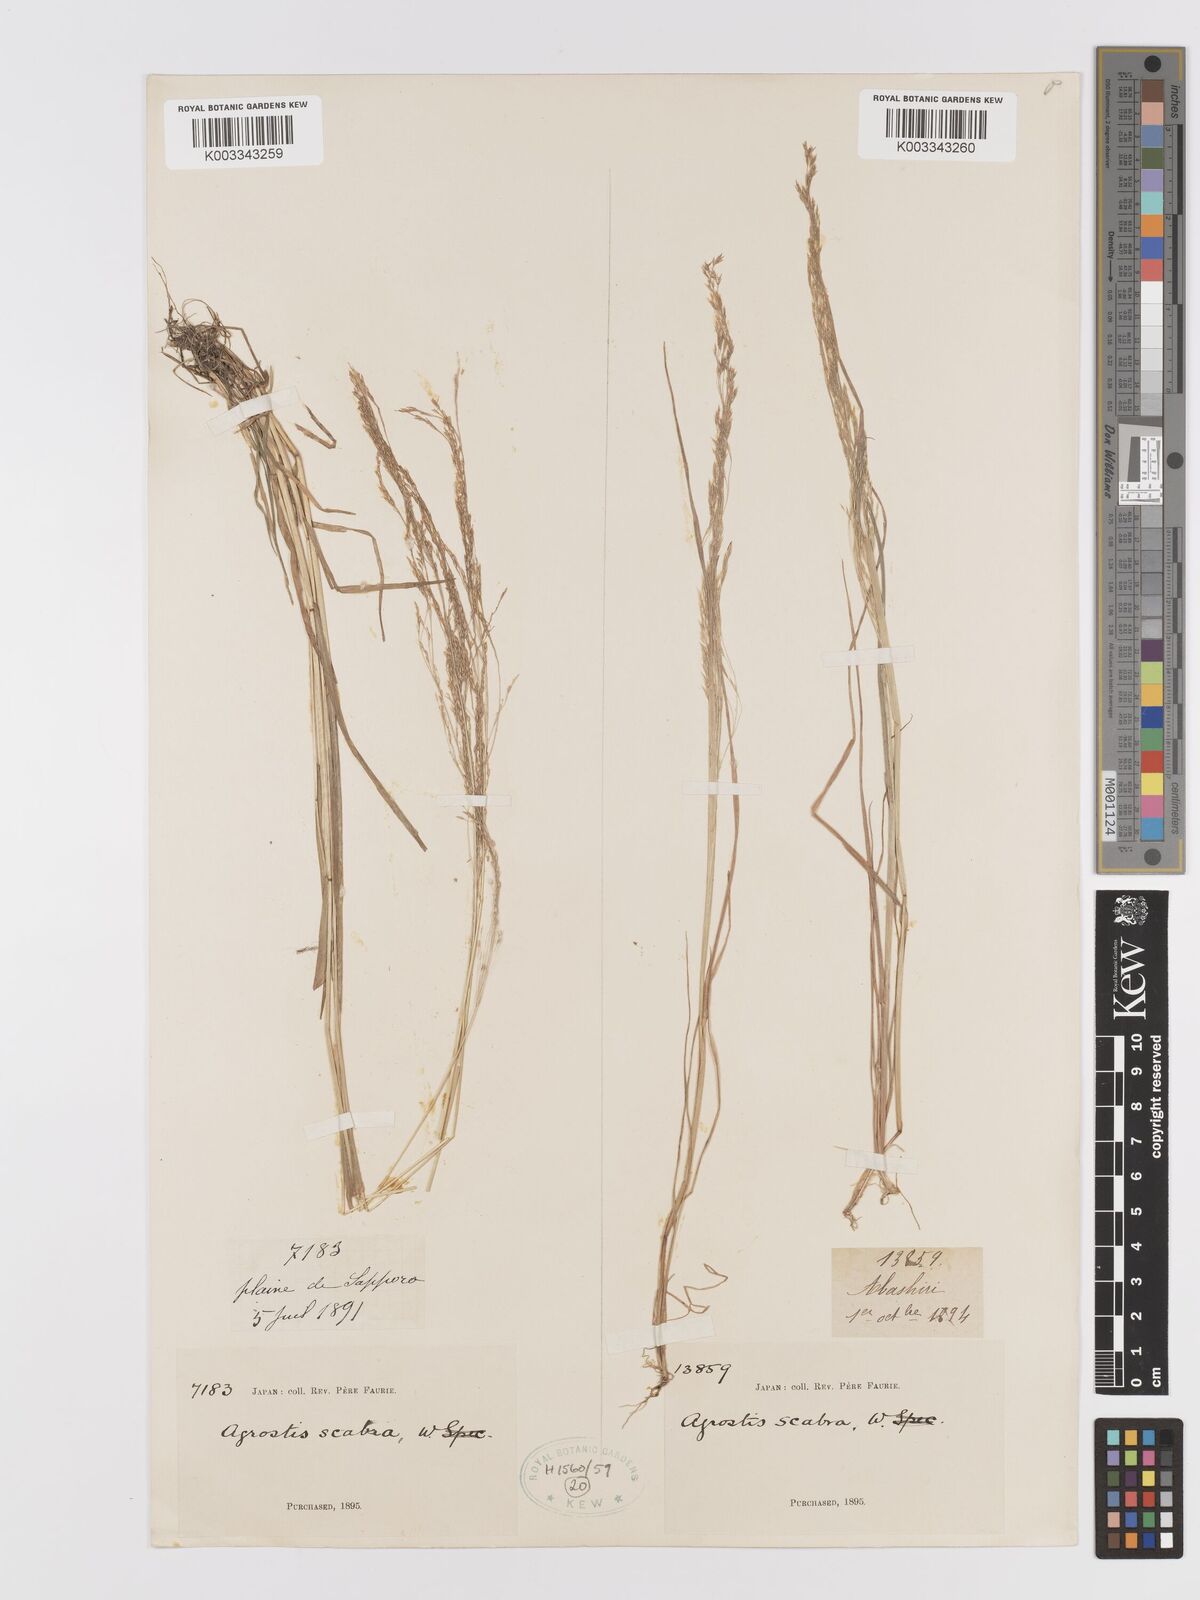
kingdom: Plantae
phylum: Tracheophyta
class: Liliopsida
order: Poales
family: Poaceae
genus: Agrostis
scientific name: Agrostis scabra
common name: Rough bent
